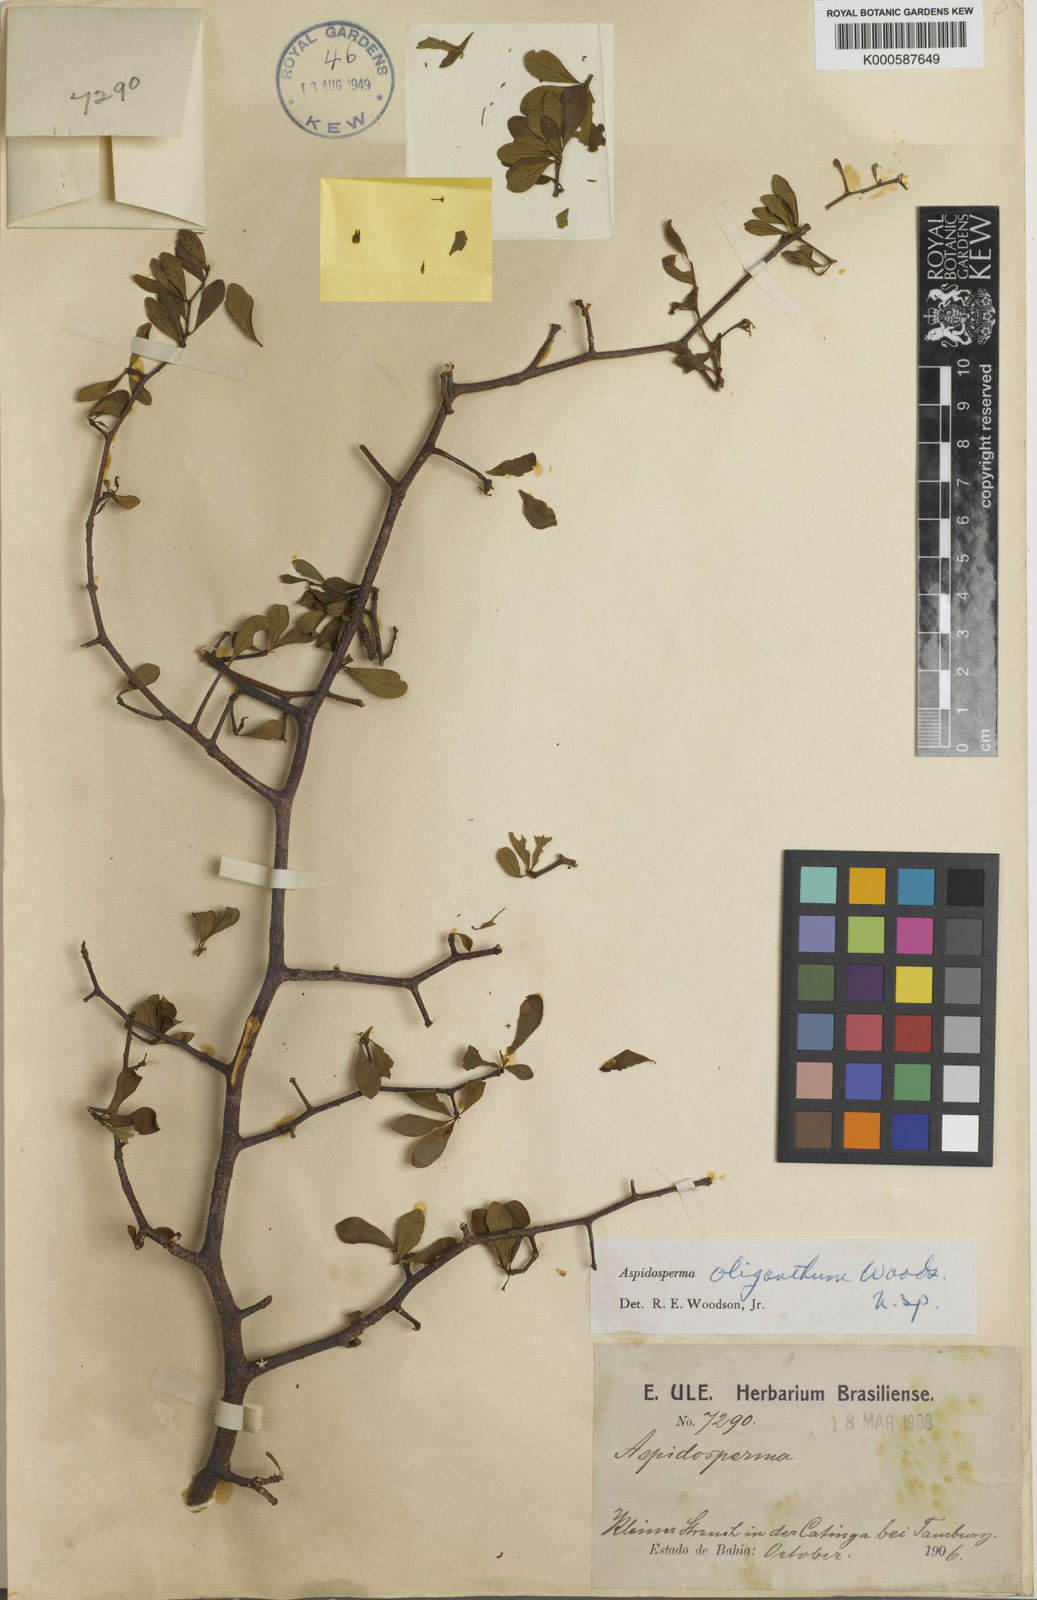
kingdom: Plantae
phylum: Tracheophyta
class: Magnoliopsida
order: Gentianales
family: Apocynaceae
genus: Aspidosperma
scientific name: Aspidosperma riedelii
